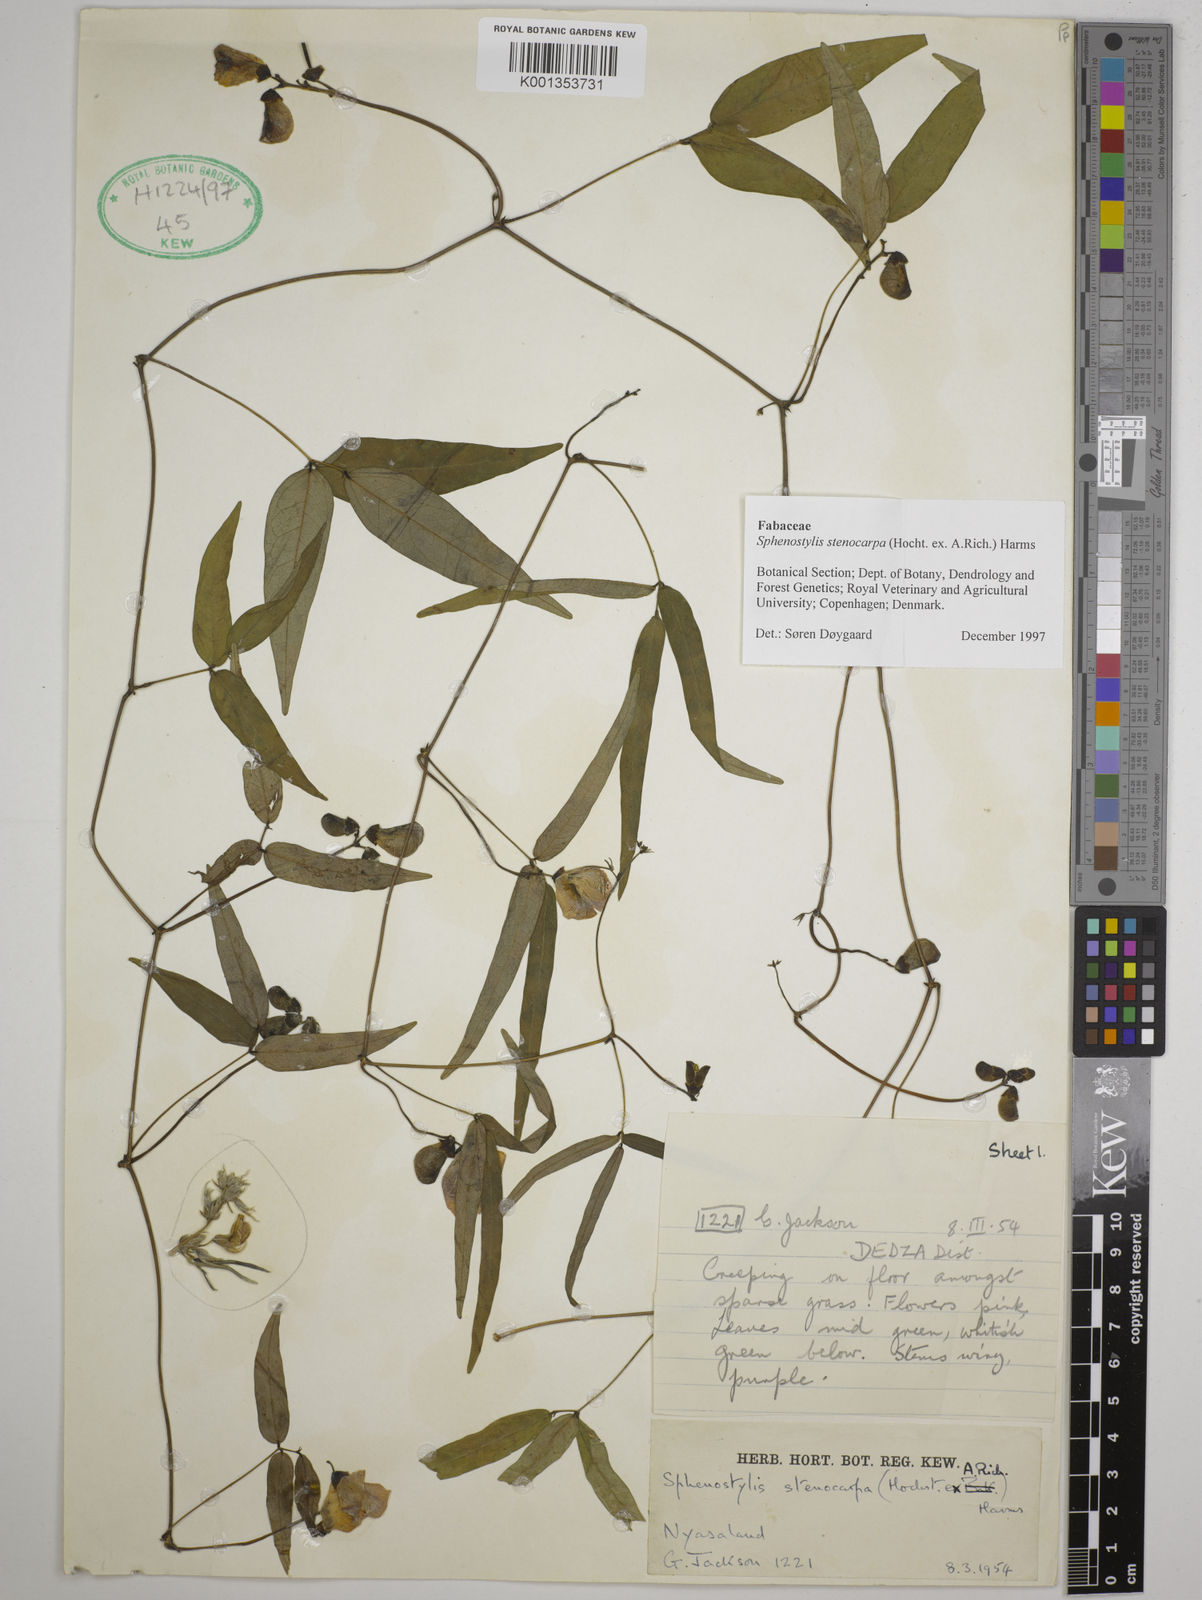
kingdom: Plantae
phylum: Tracheophyta
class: Magnoliopsida
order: Fabales
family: Fabaceae
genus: Sphenostylis
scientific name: Sphenostylis stenocarpa
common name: Yam-pea
